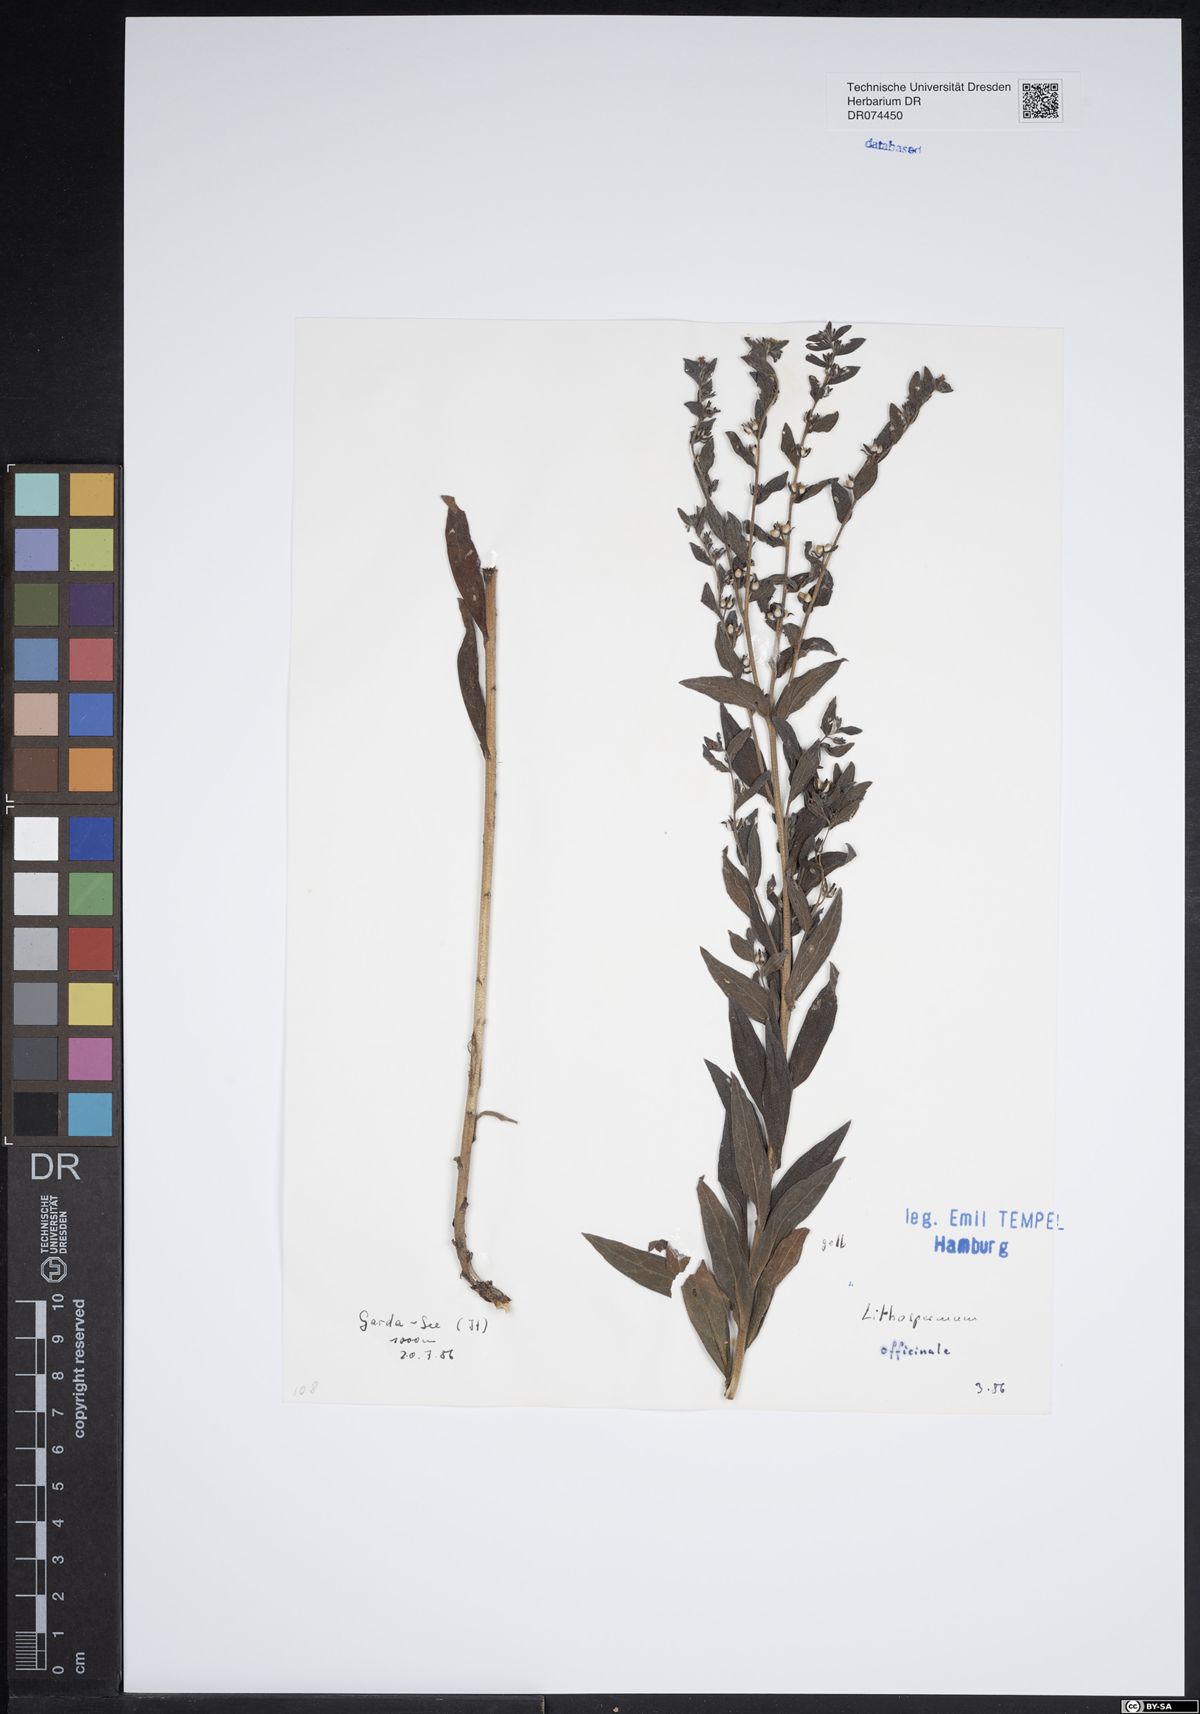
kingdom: Plantae
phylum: Tracheophyta
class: Magnoliopsida
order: Boraginales
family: Boraginaceae
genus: Lithospermum
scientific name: Lithospermum officinale
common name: Common gromwell
